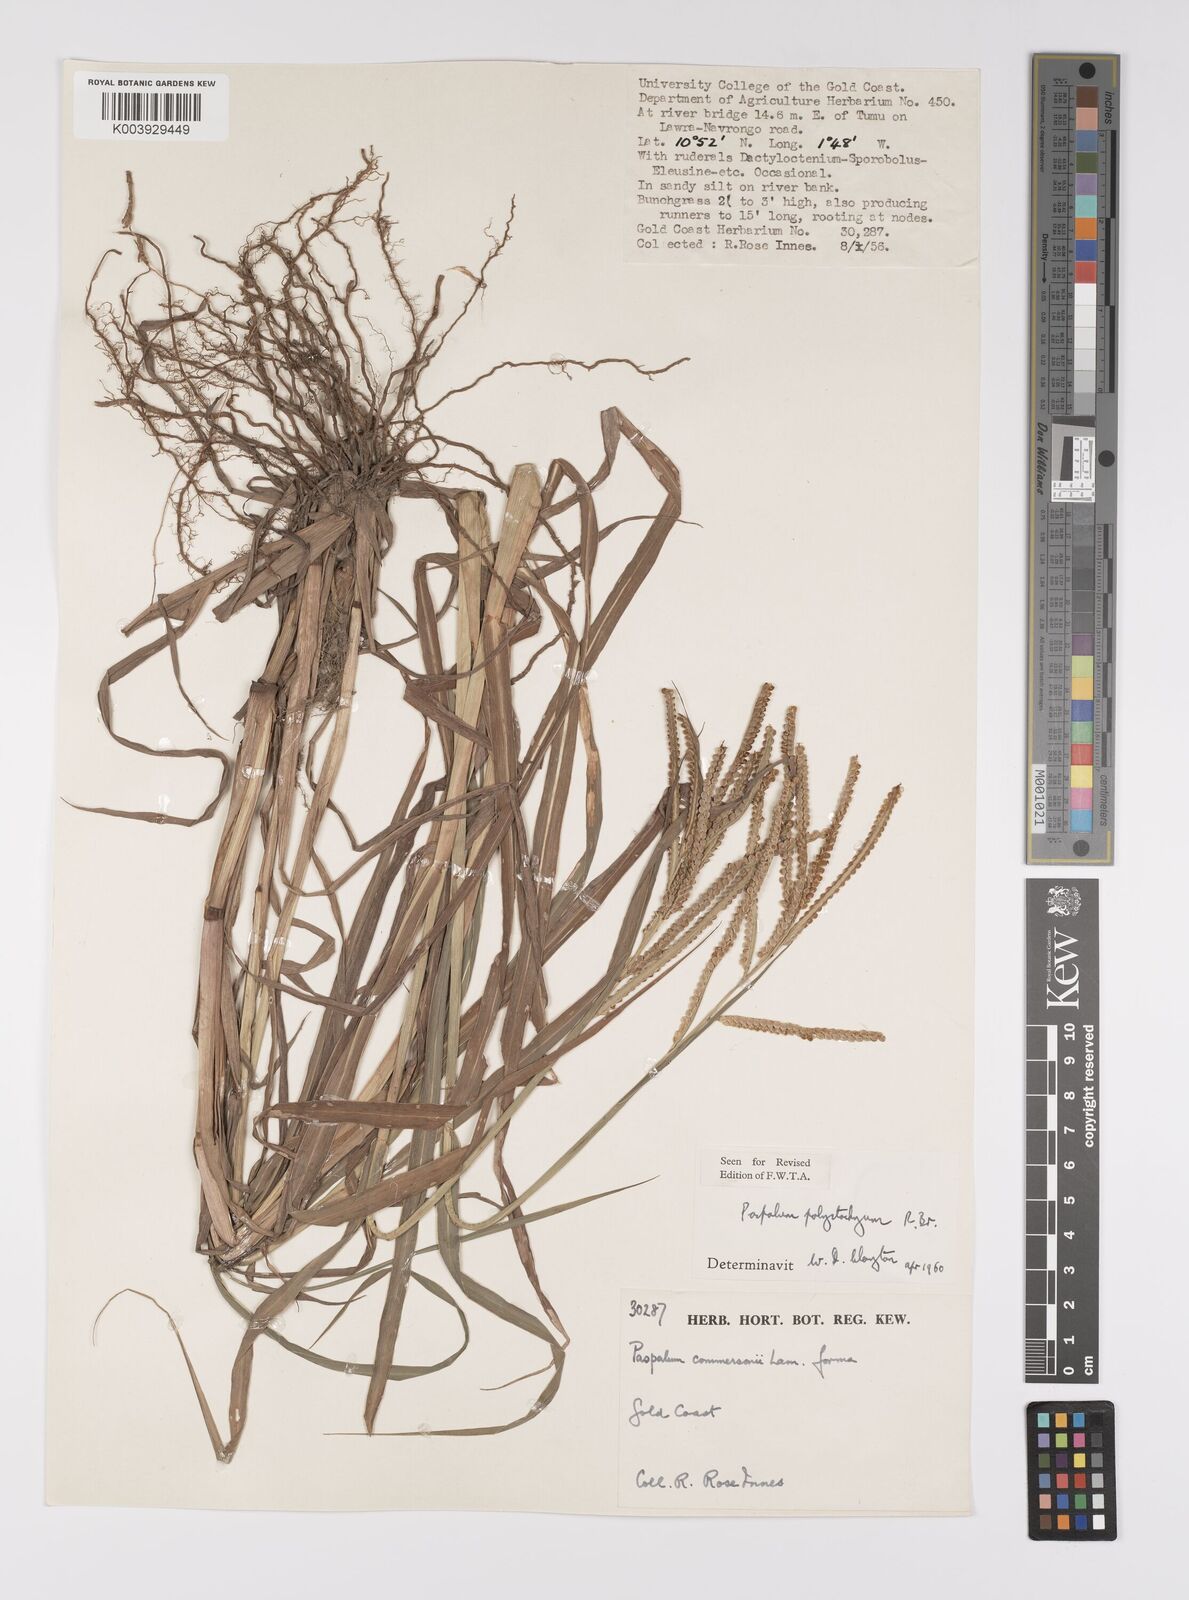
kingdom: Plantae
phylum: Tracheophyta
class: Liliopsida
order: Poales
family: Poaceae
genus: Paspalum
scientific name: Paspalum scrobiculatum
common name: Kodo millet
